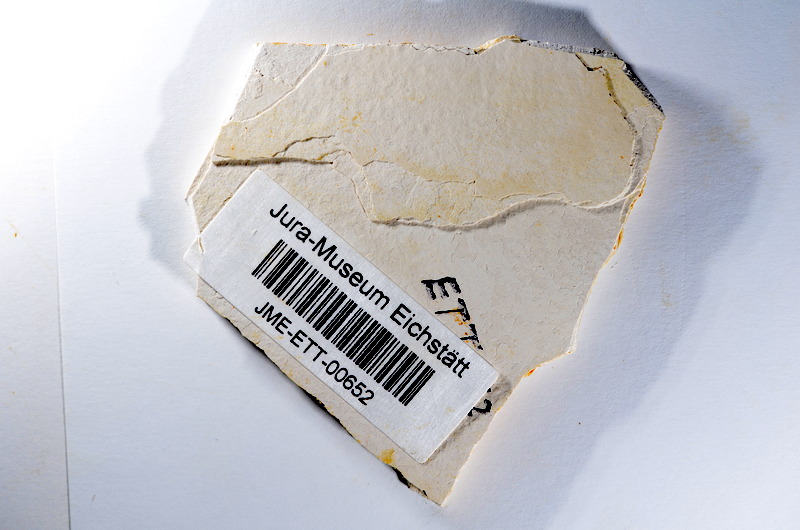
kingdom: Animalia
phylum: Chordata
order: Salmoniformes
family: Orthogonikleithridae
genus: Orthogonikleithrus
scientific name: Orthogonikleithrus hoelli
